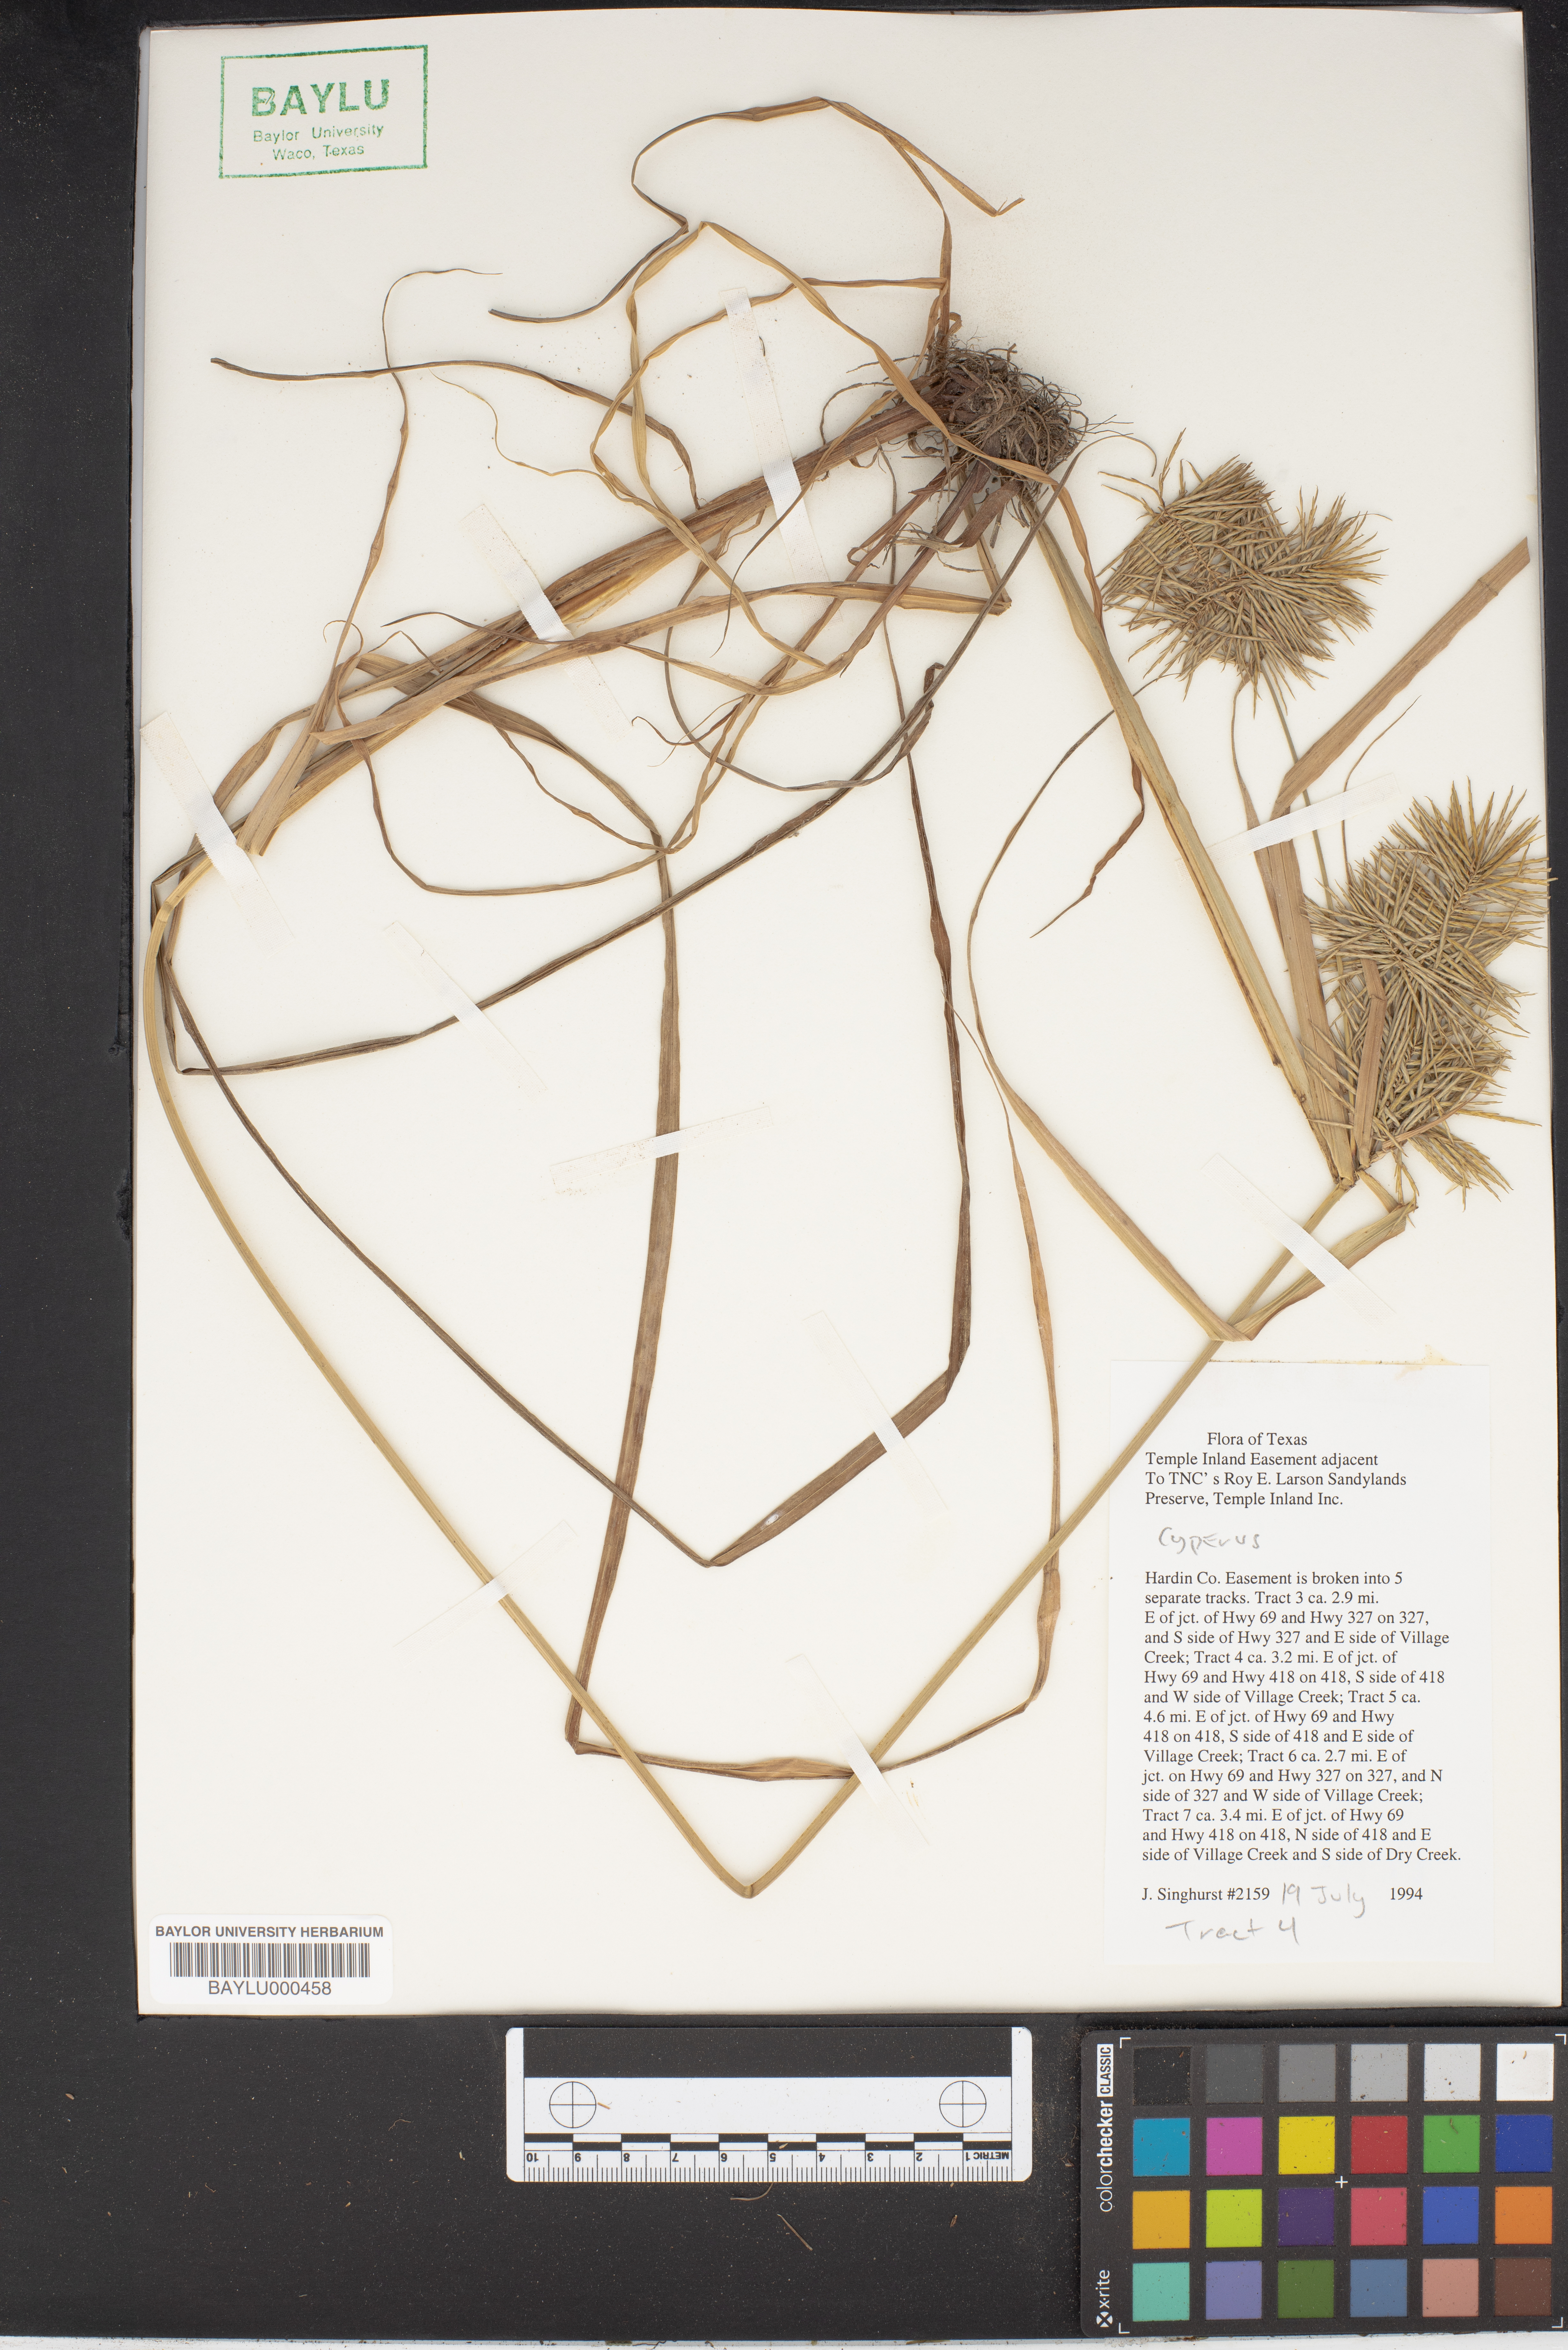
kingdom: Plantae
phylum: Tracheophyta
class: Liliopsida
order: Poales
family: Cyperaceae
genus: Cyperus
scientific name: Cyperus
